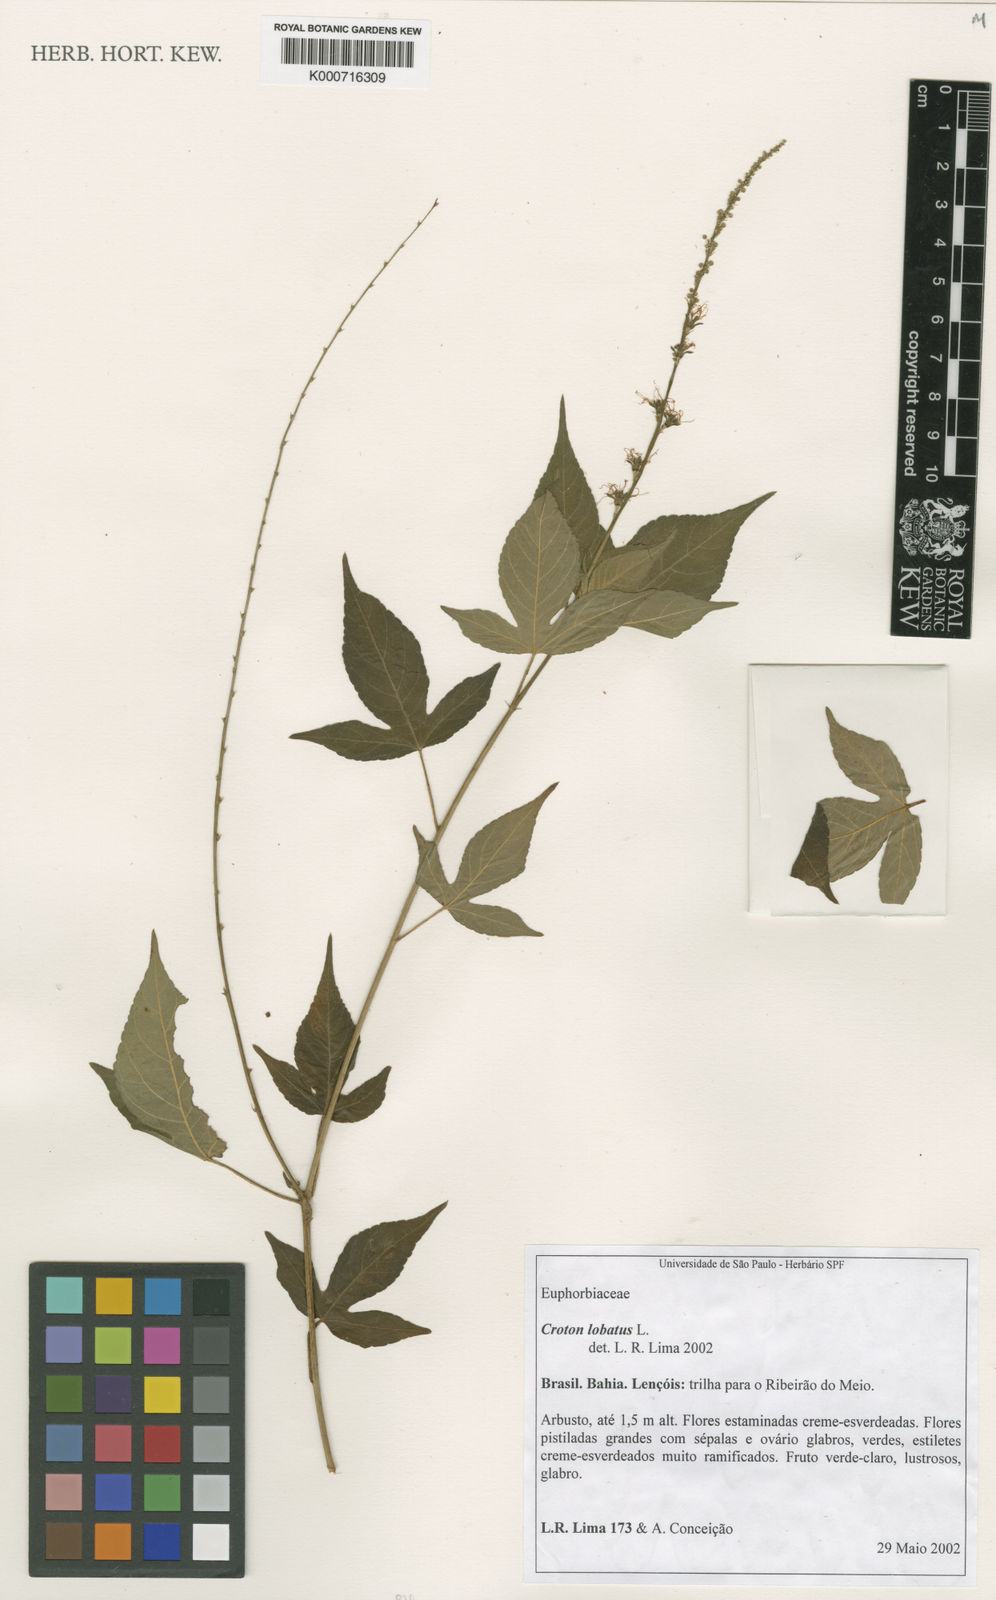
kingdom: Plantae
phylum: Tracheophyta
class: Magnoliopsida
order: Malpighiales
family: Euphorbiaceae
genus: Astraea
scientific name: Astraea lobata
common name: Lobed croton
